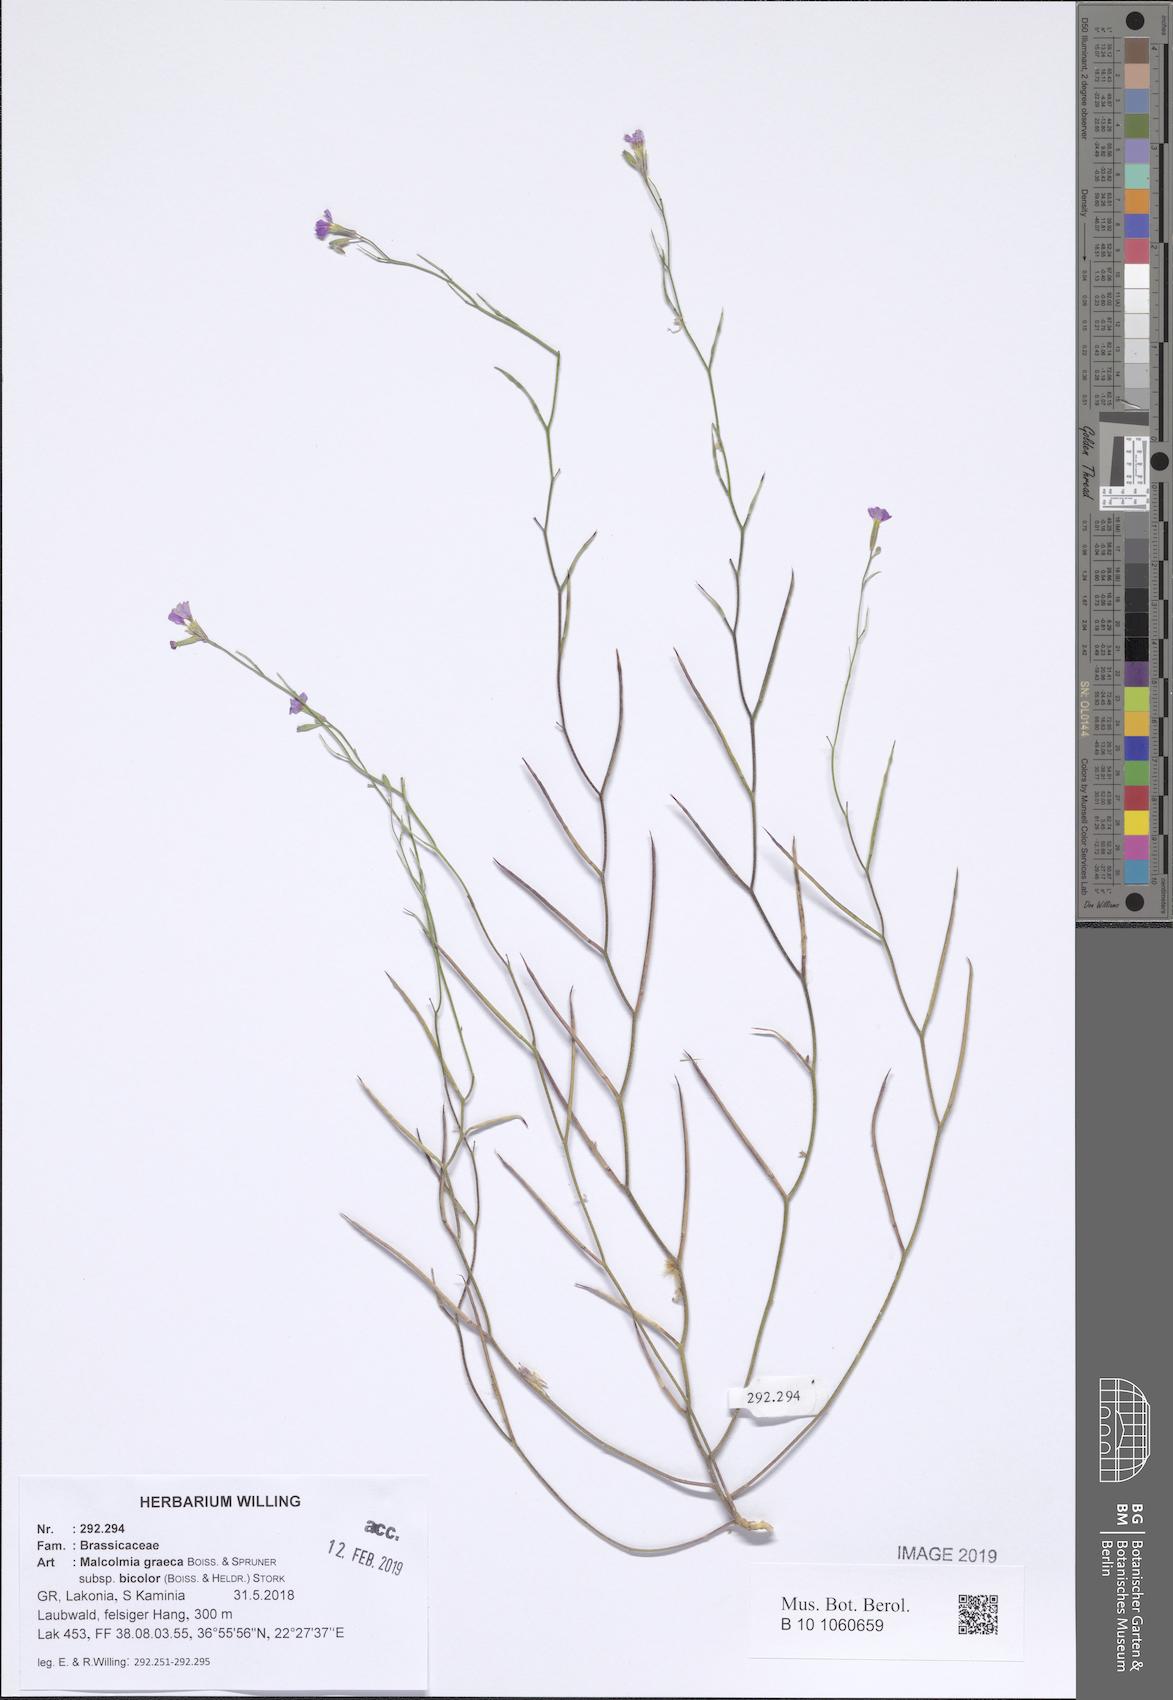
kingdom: Plantae
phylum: Tracheophyta
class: Magnoliopsida
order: Brassicales
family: Brassicaceae
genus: Malcolmia
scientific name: Malcolmia graeca
